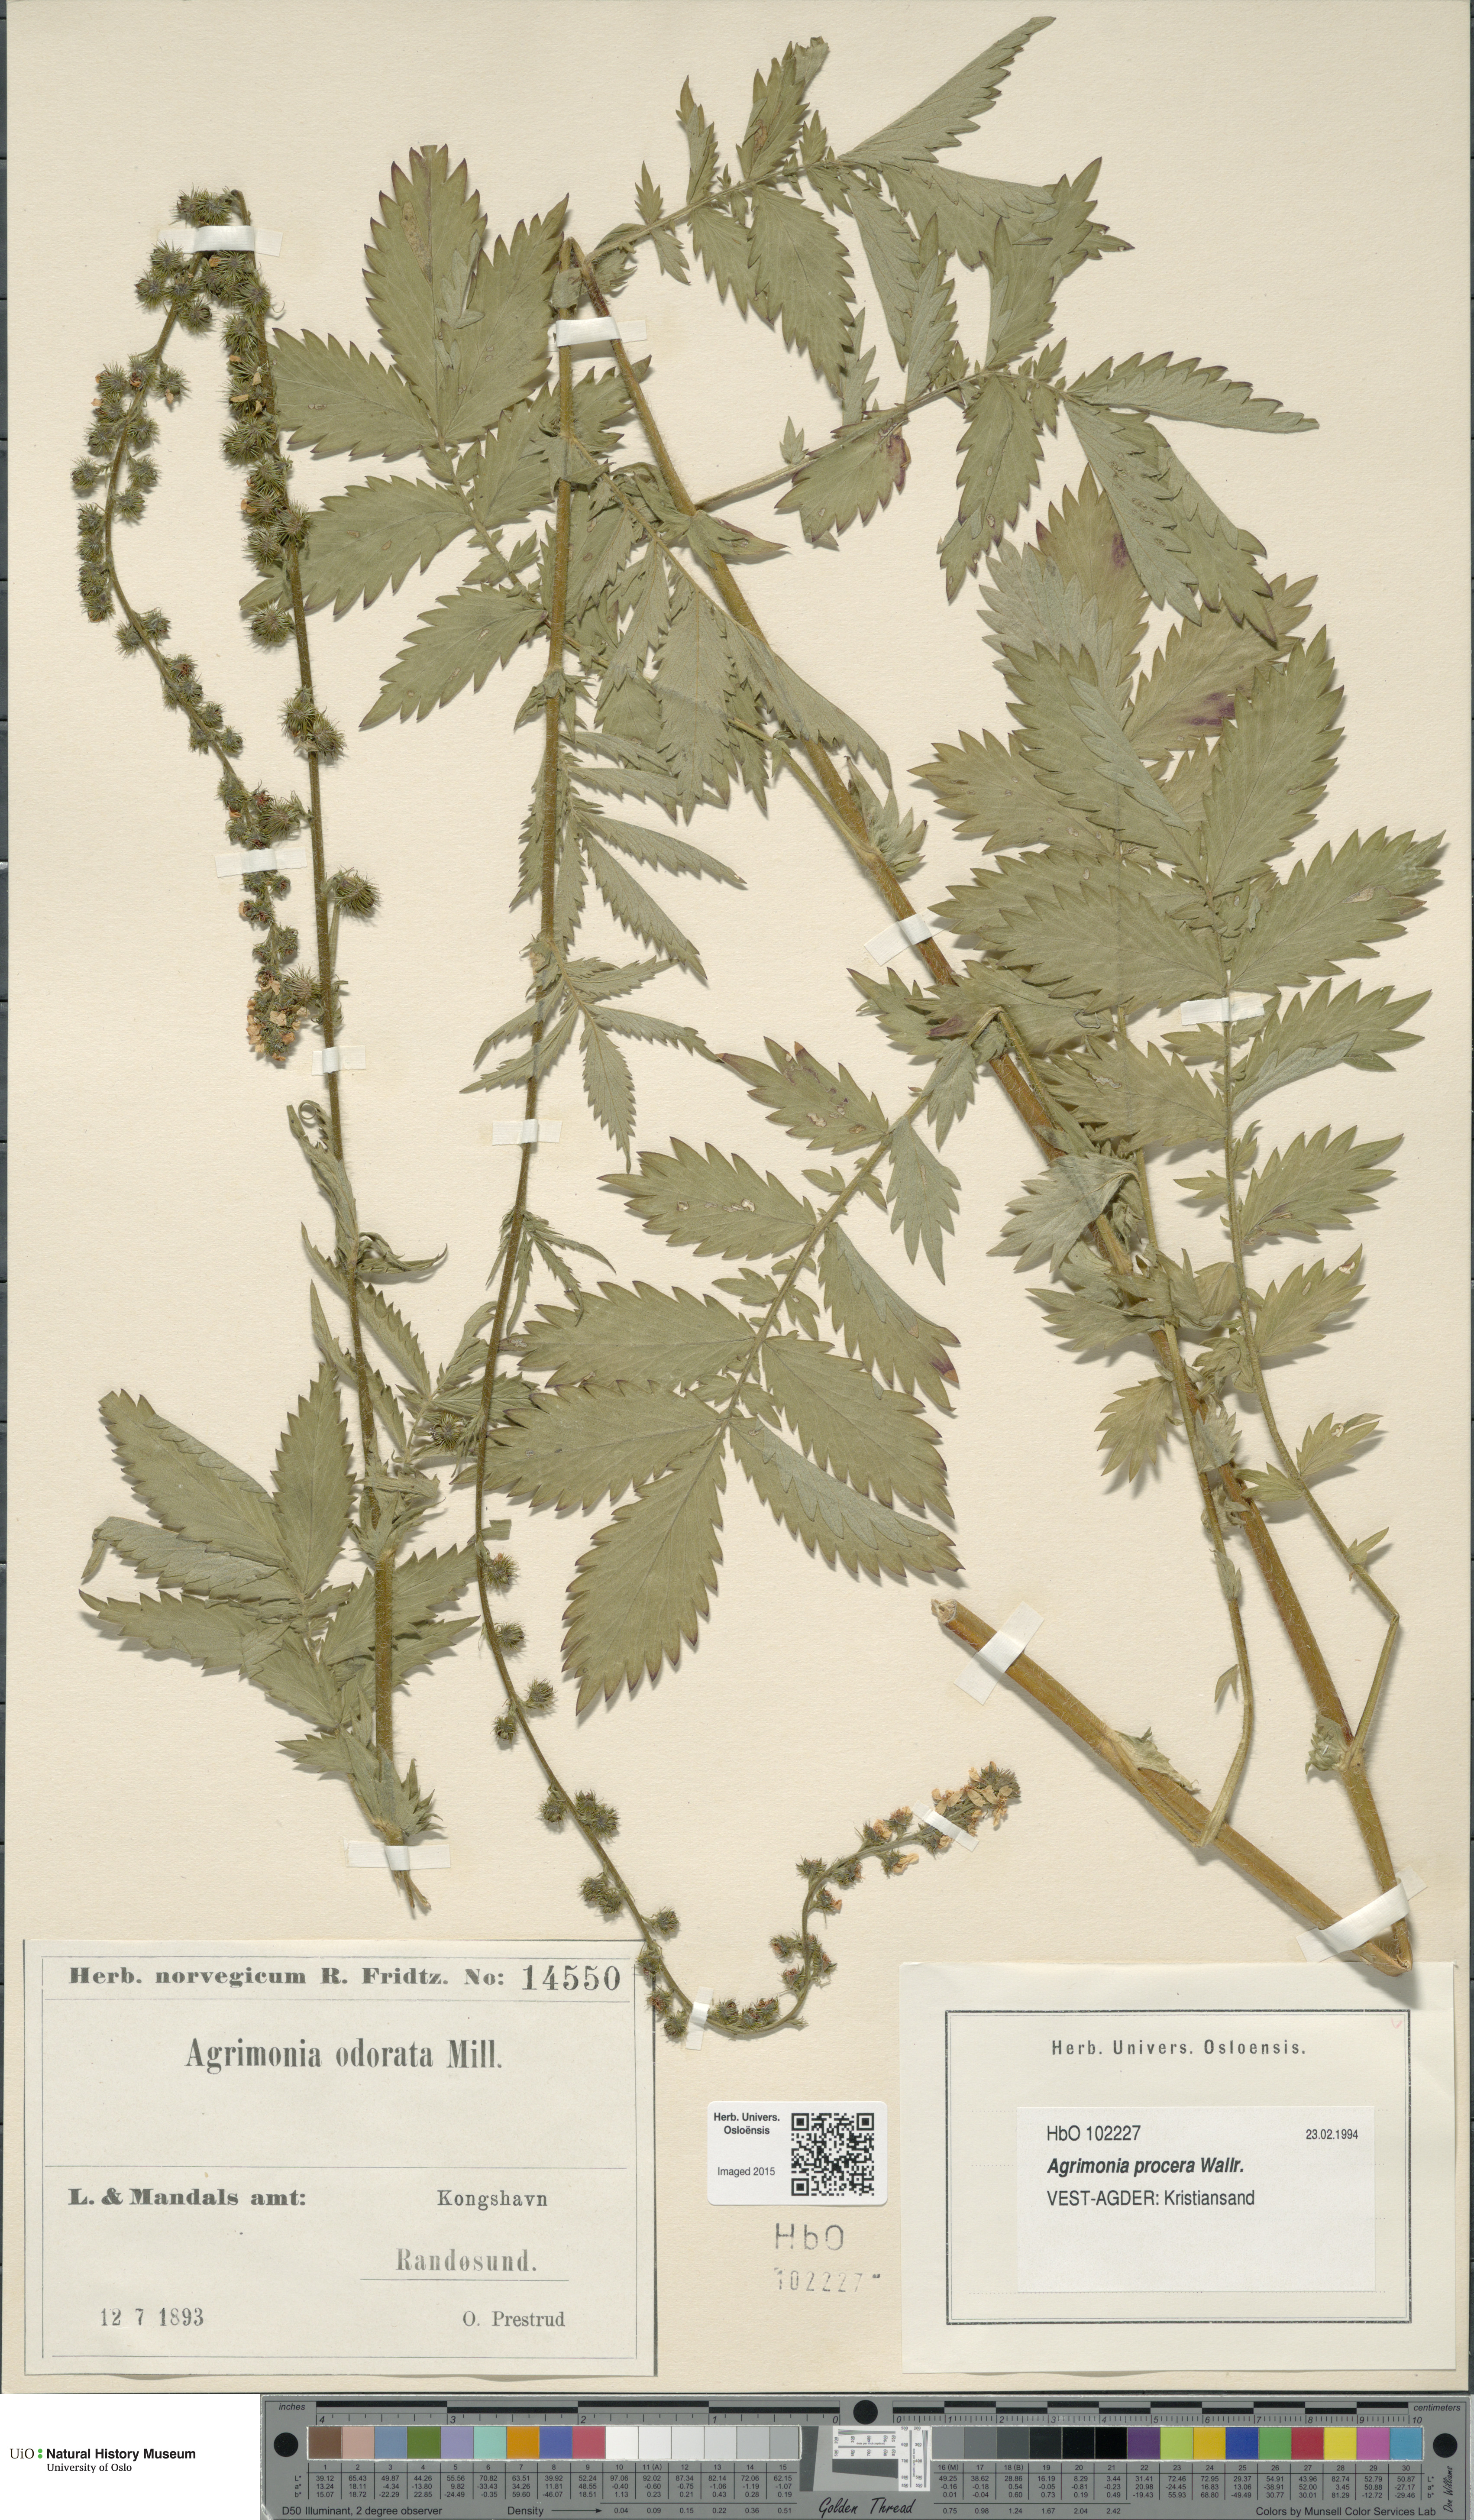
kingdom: Plantae
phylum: Tracheophyta
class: Magnoliopsida
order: Rosales
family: Rosaceae
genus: Agrimonia
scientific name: Agrimonia procera
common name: Fragrant agrimony
